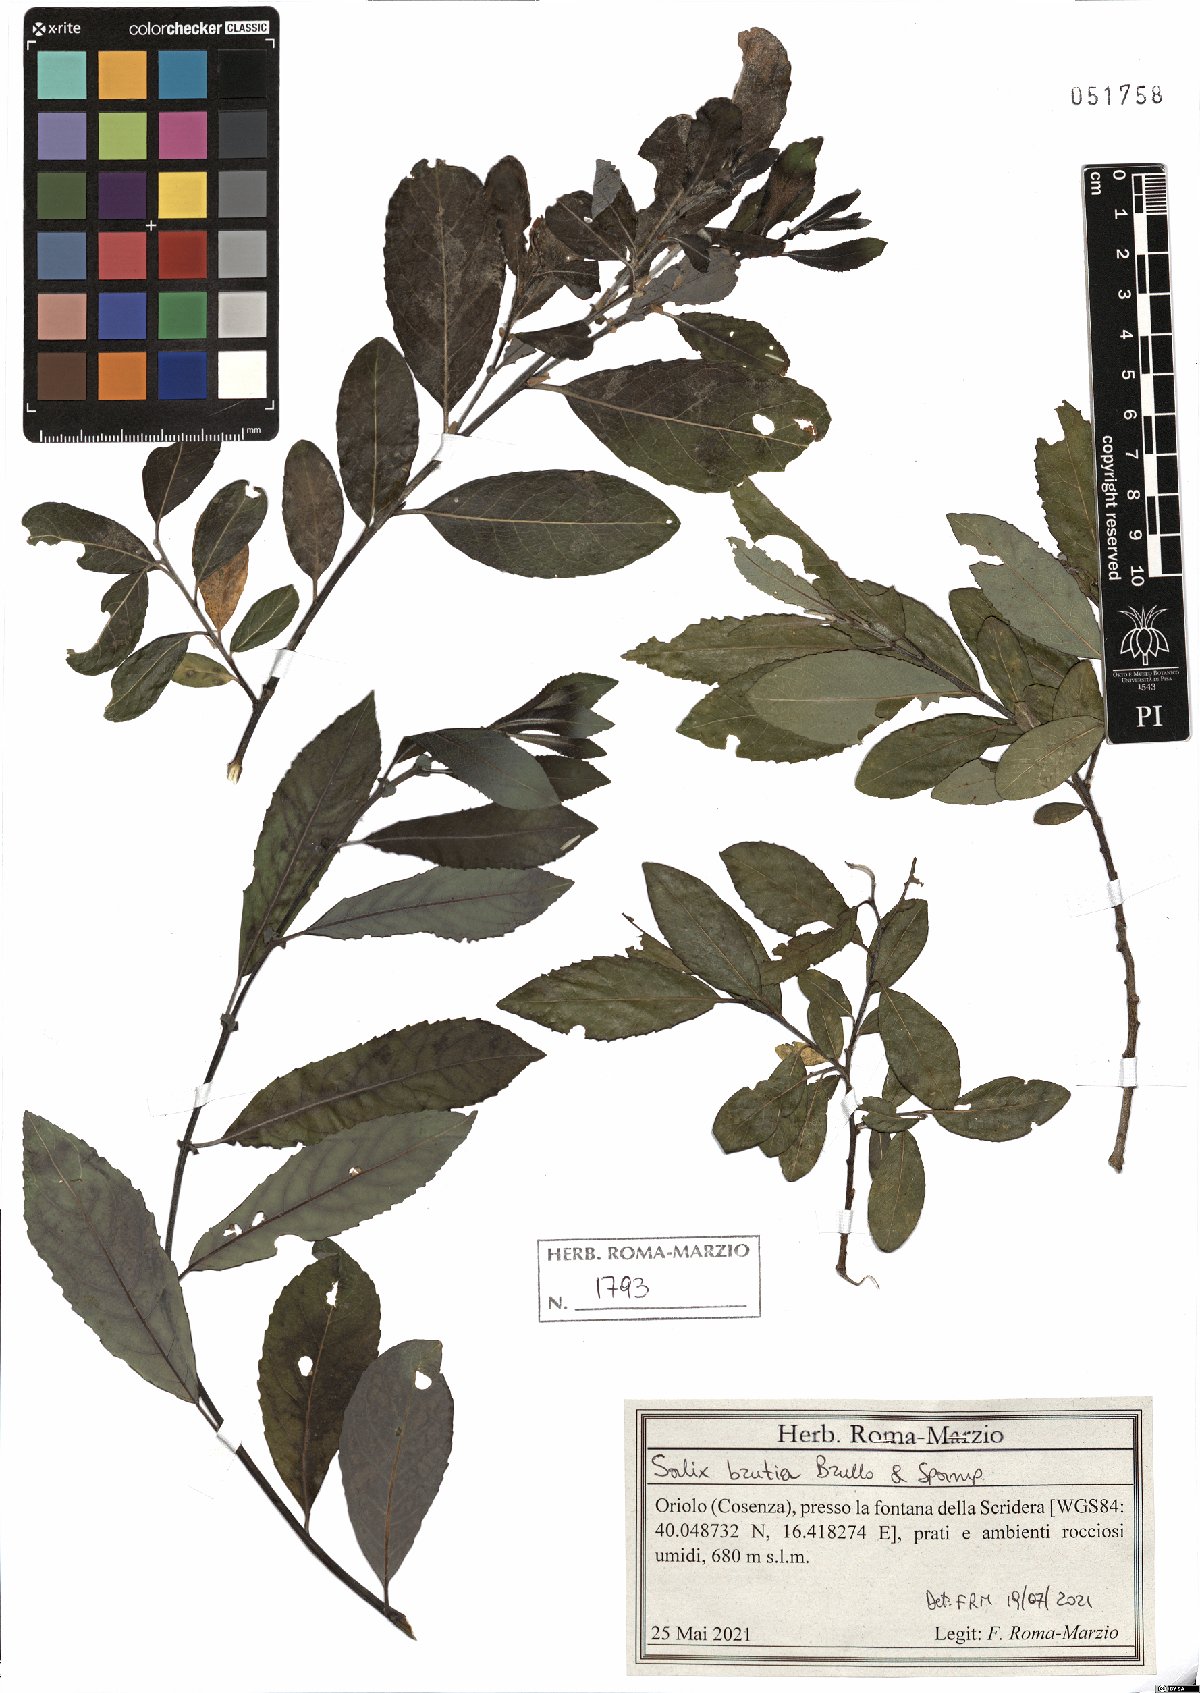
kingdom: Plantae
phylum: Tracheophyta
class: Magnoliopsida
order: Malpighiales
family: Salicaceae
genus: Salix
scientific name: Salix brutia
